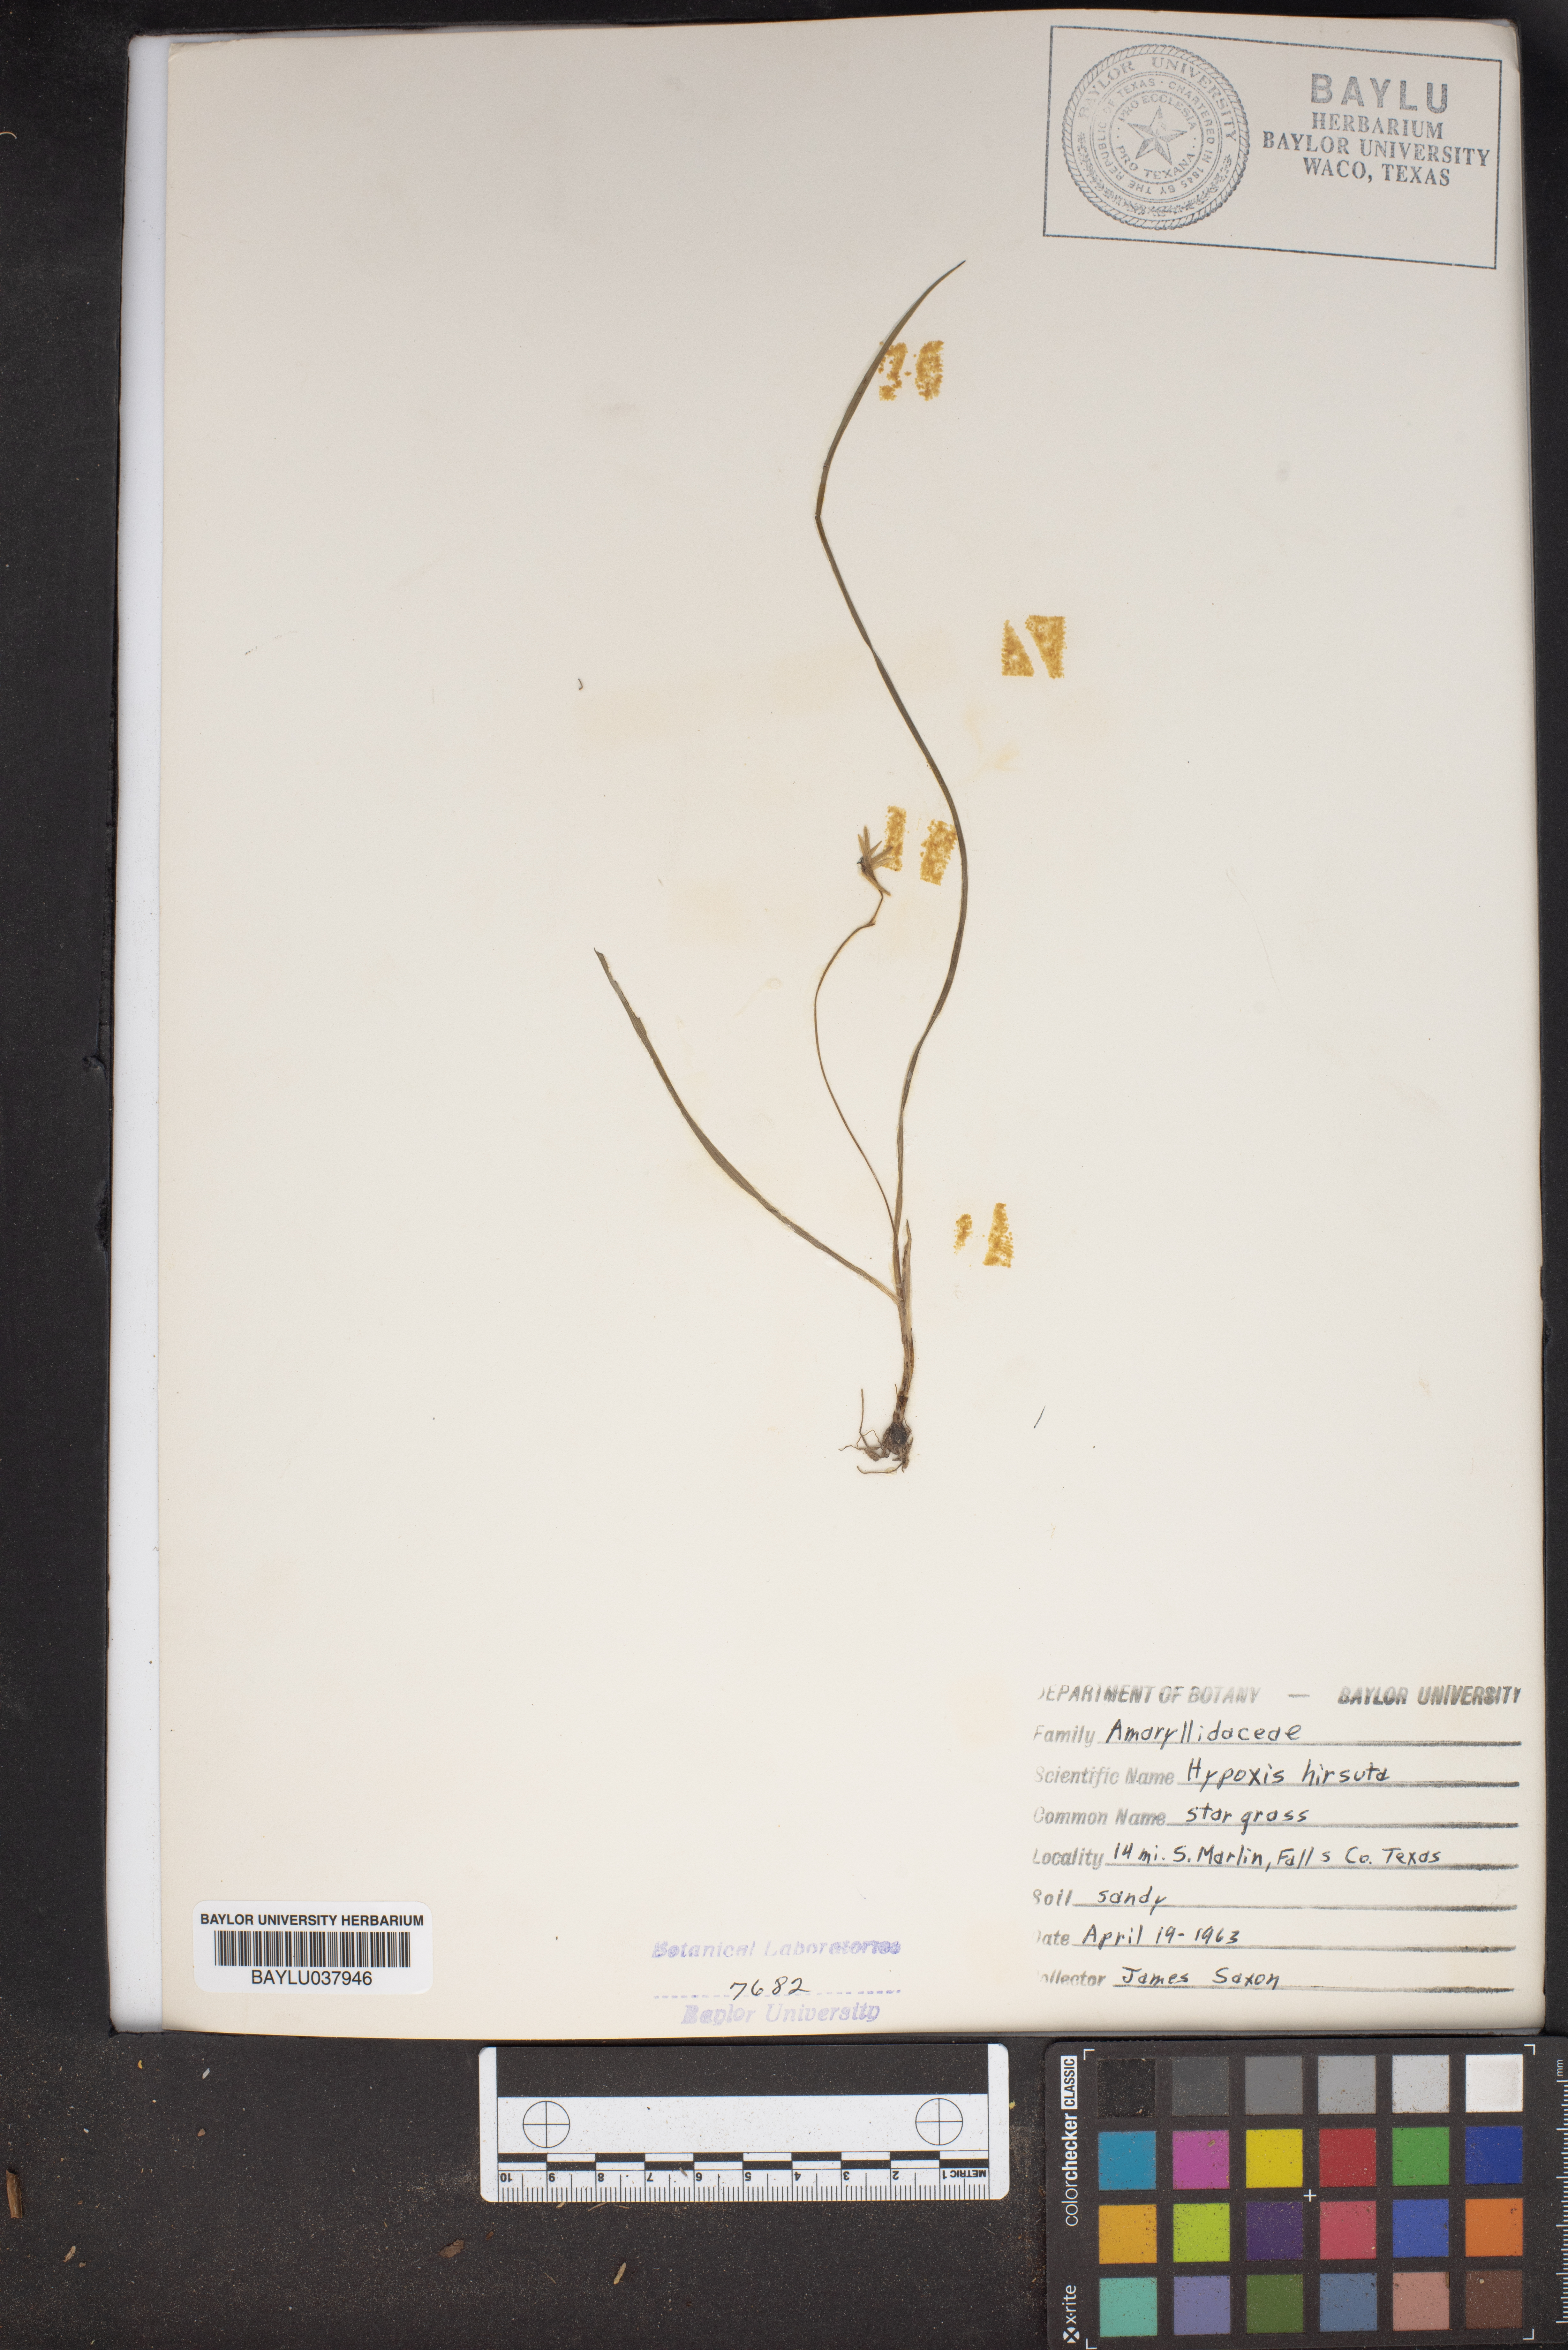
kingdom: Plantae
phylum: Tracheophyta
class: Liliopsida
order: Asparagales
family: Hypoxidaceae
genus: Hypoxis
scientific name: Hypoxis hirsuta
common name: Common goldstar
